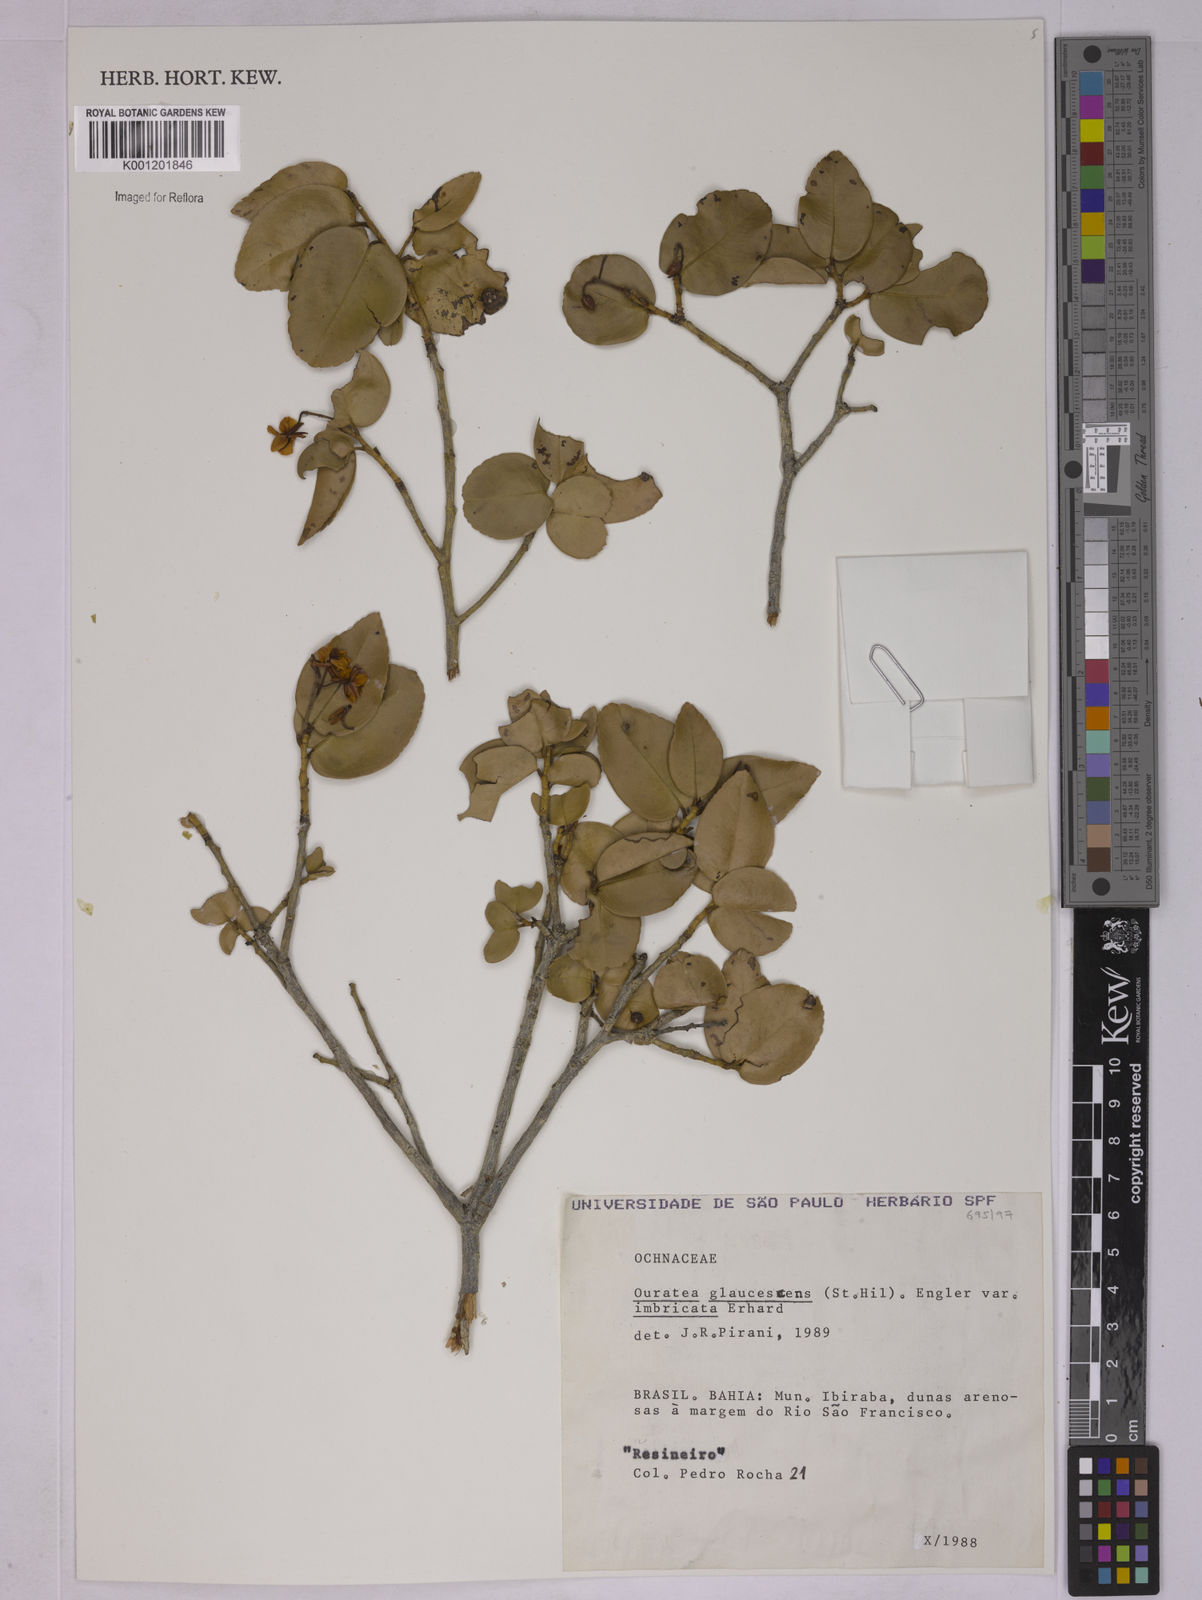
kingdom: Plantae
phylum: Tracheophyta
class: Magnoliopsida
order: Malpighiales
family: Ochnaceae
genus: Ouratea
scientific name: Ouratea glaucescens
